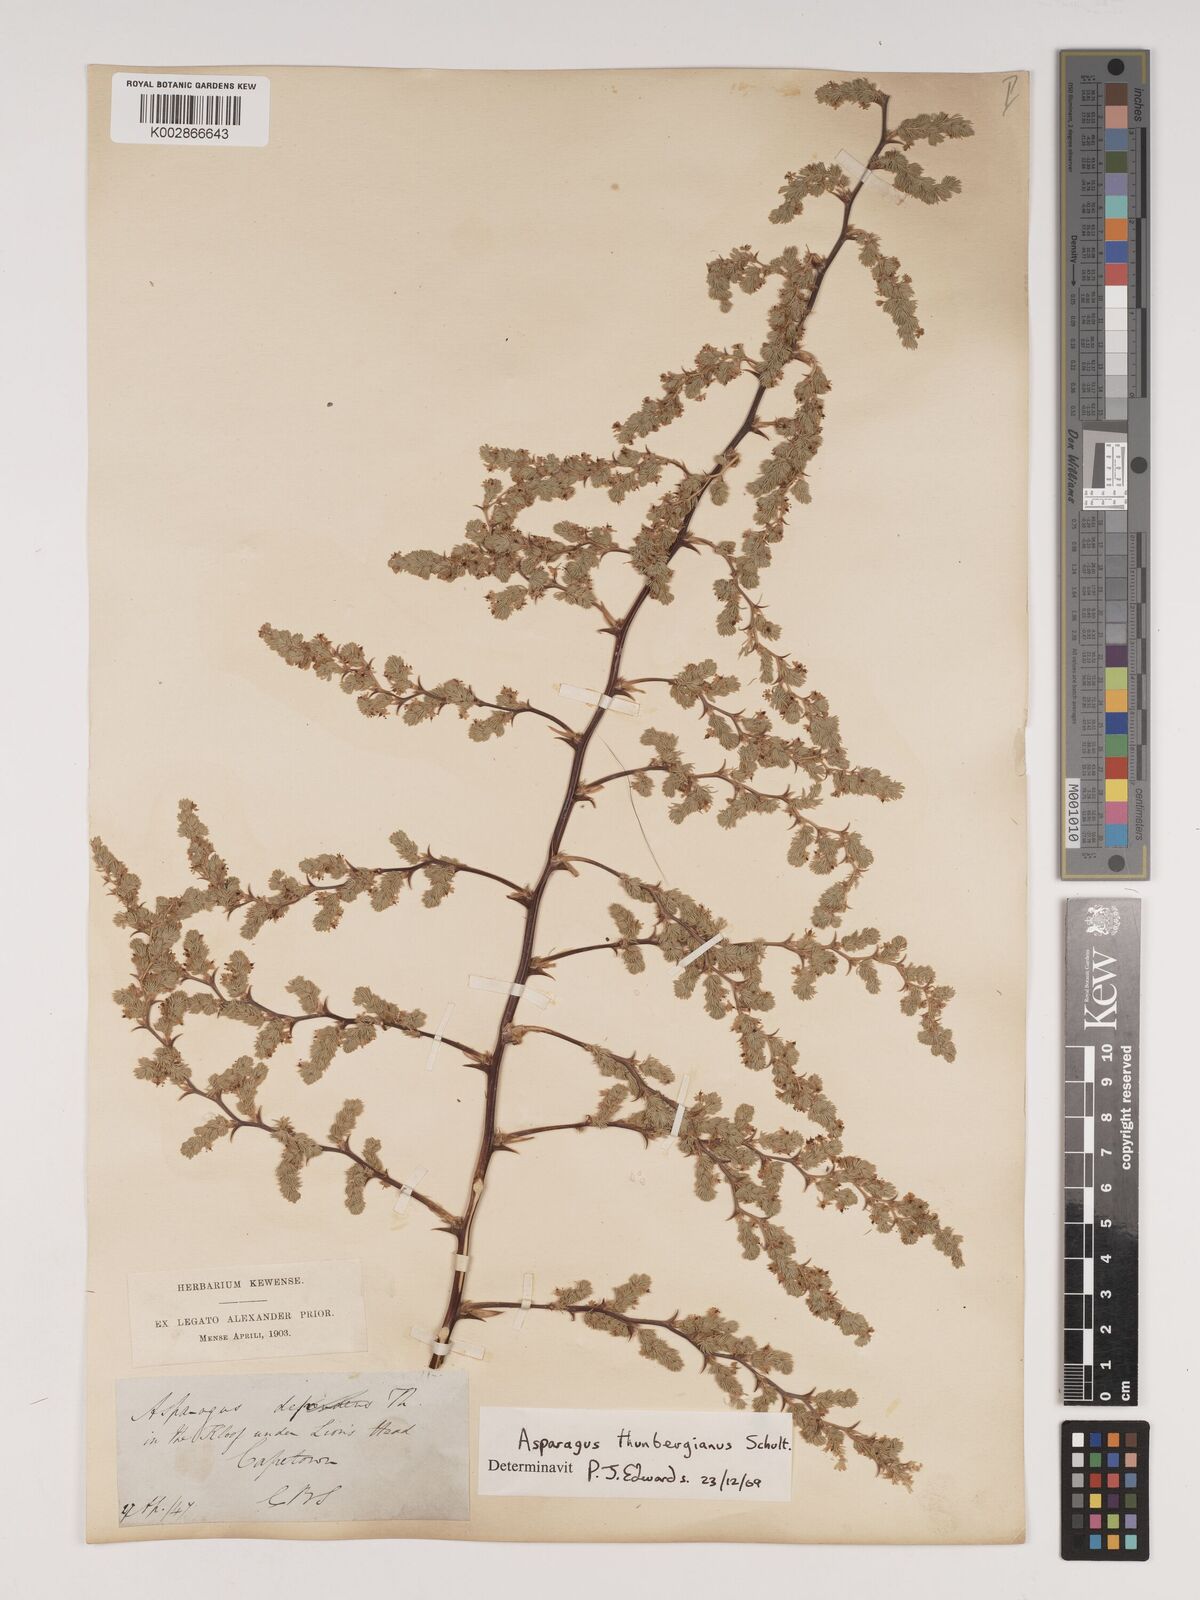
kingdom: Plantae
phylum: Tracheophyta
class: Liliopsida
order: Asparagales
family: Asparagaceae
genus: Asparagus
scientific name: Asparagus rubicundus
